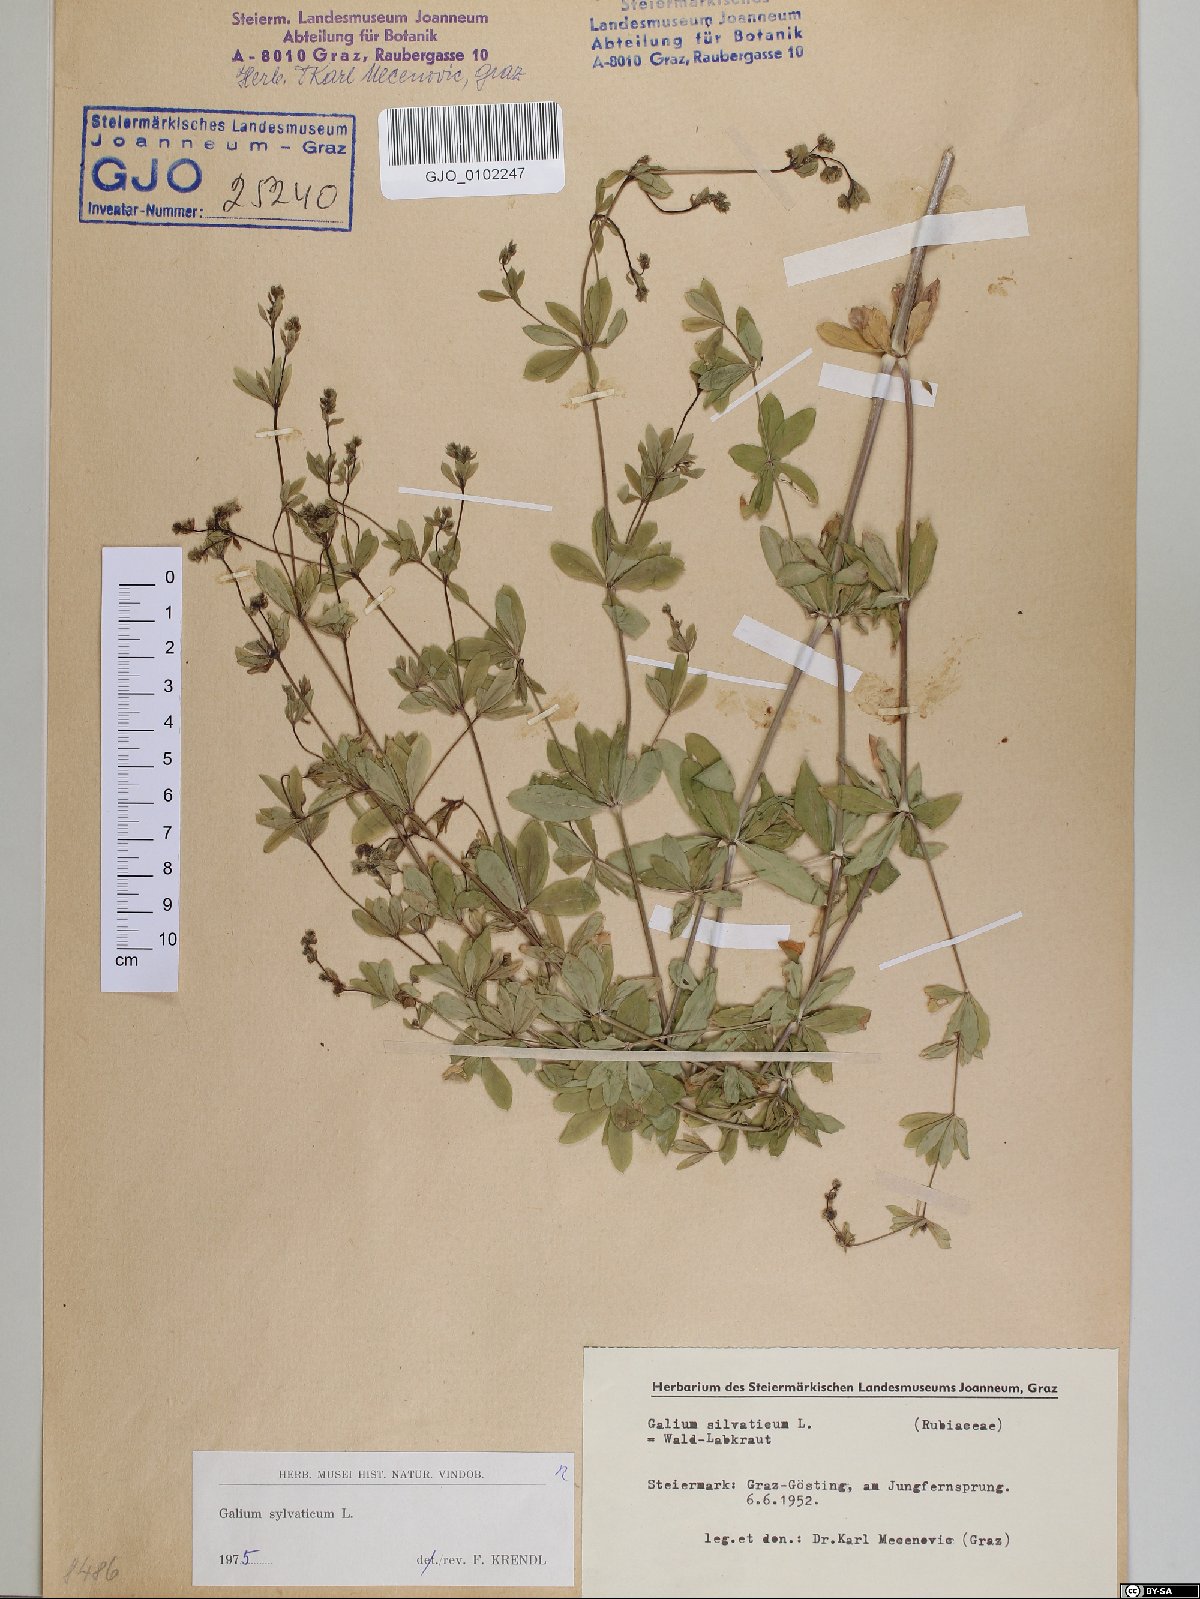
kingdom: Plantae
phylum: Tracheophyta
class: Magnoliopsida
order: Gentianales
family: Rubiaceae
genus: Galium
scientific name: Galium sylvaticum
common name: Wood bedstraw
